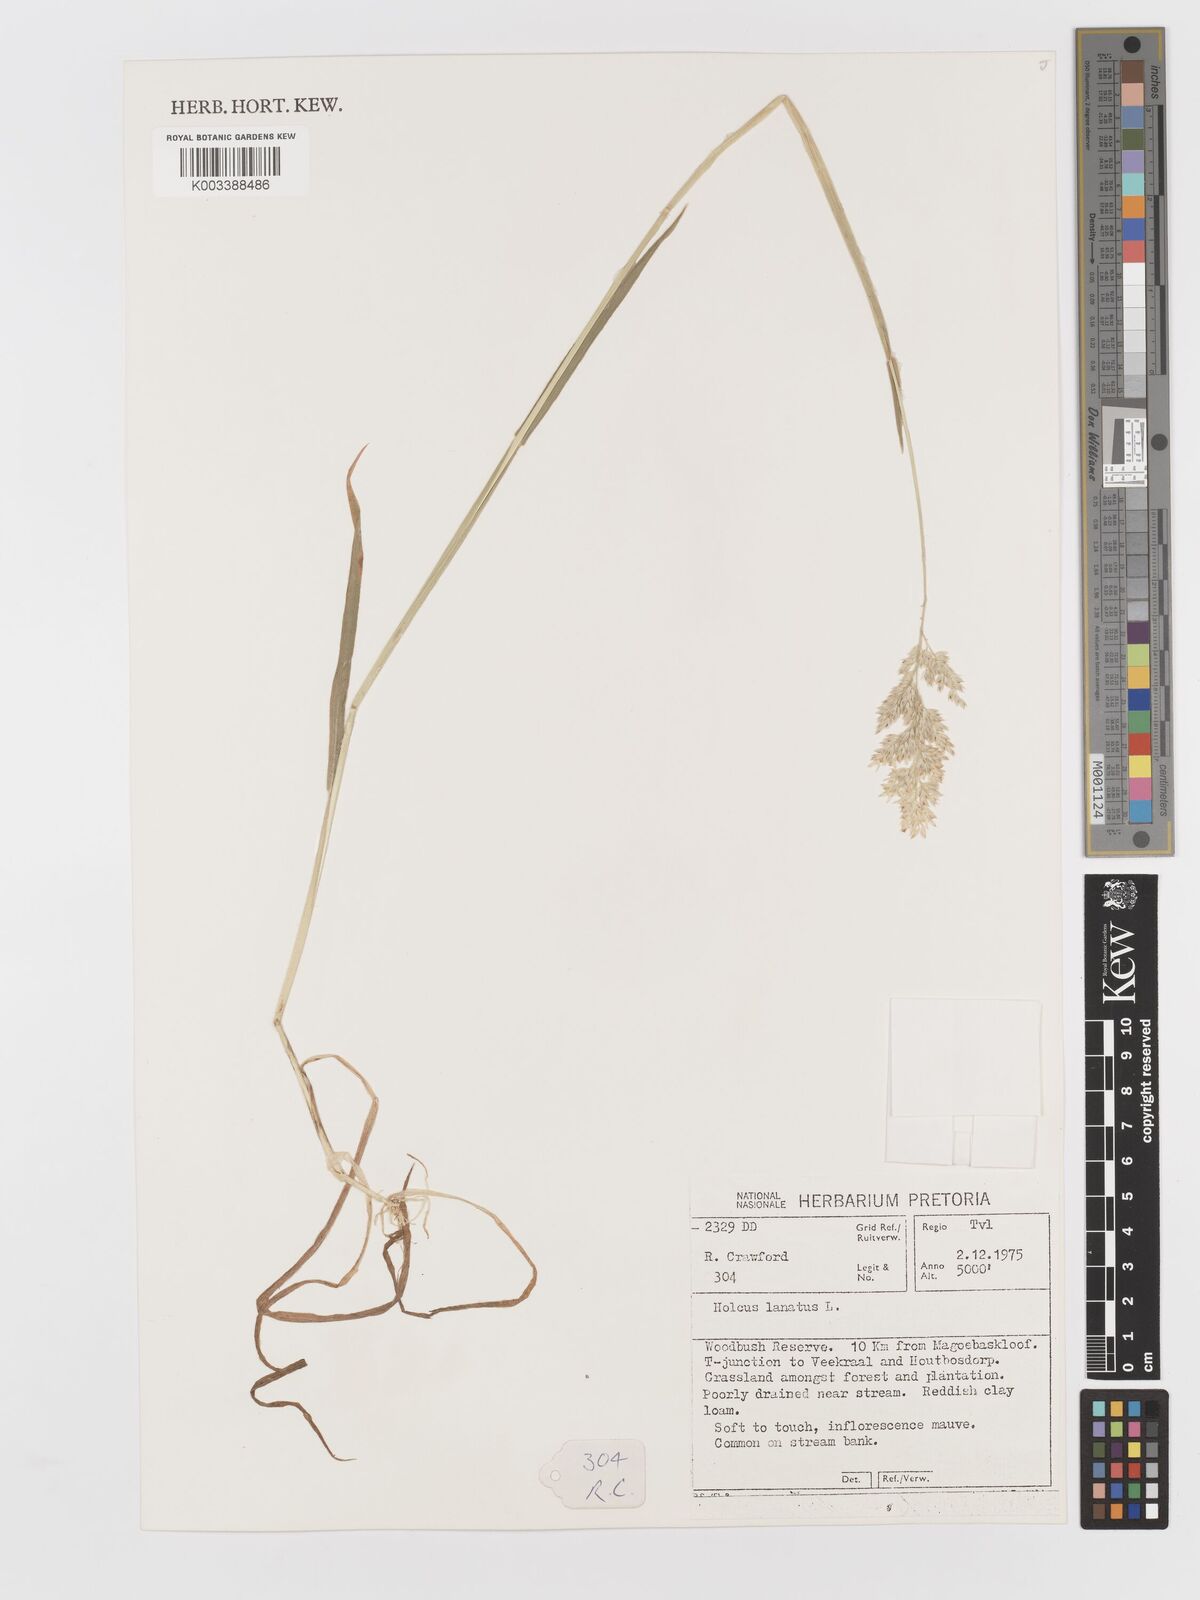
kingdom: Plantae
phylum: Tracheophyta
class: Liliopsida
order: Poales
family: Poaceae
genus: Holcus
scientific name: Holcus lanatus
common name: Yorkshire-fog
